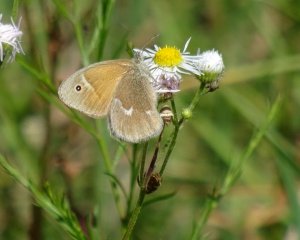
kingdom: Animalia
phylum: Arthropoda
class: Insecta
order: Lepidoptera
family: Nymphalidae
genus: Coenonympha
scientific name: Coenonympha tullia
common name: Large Heath
